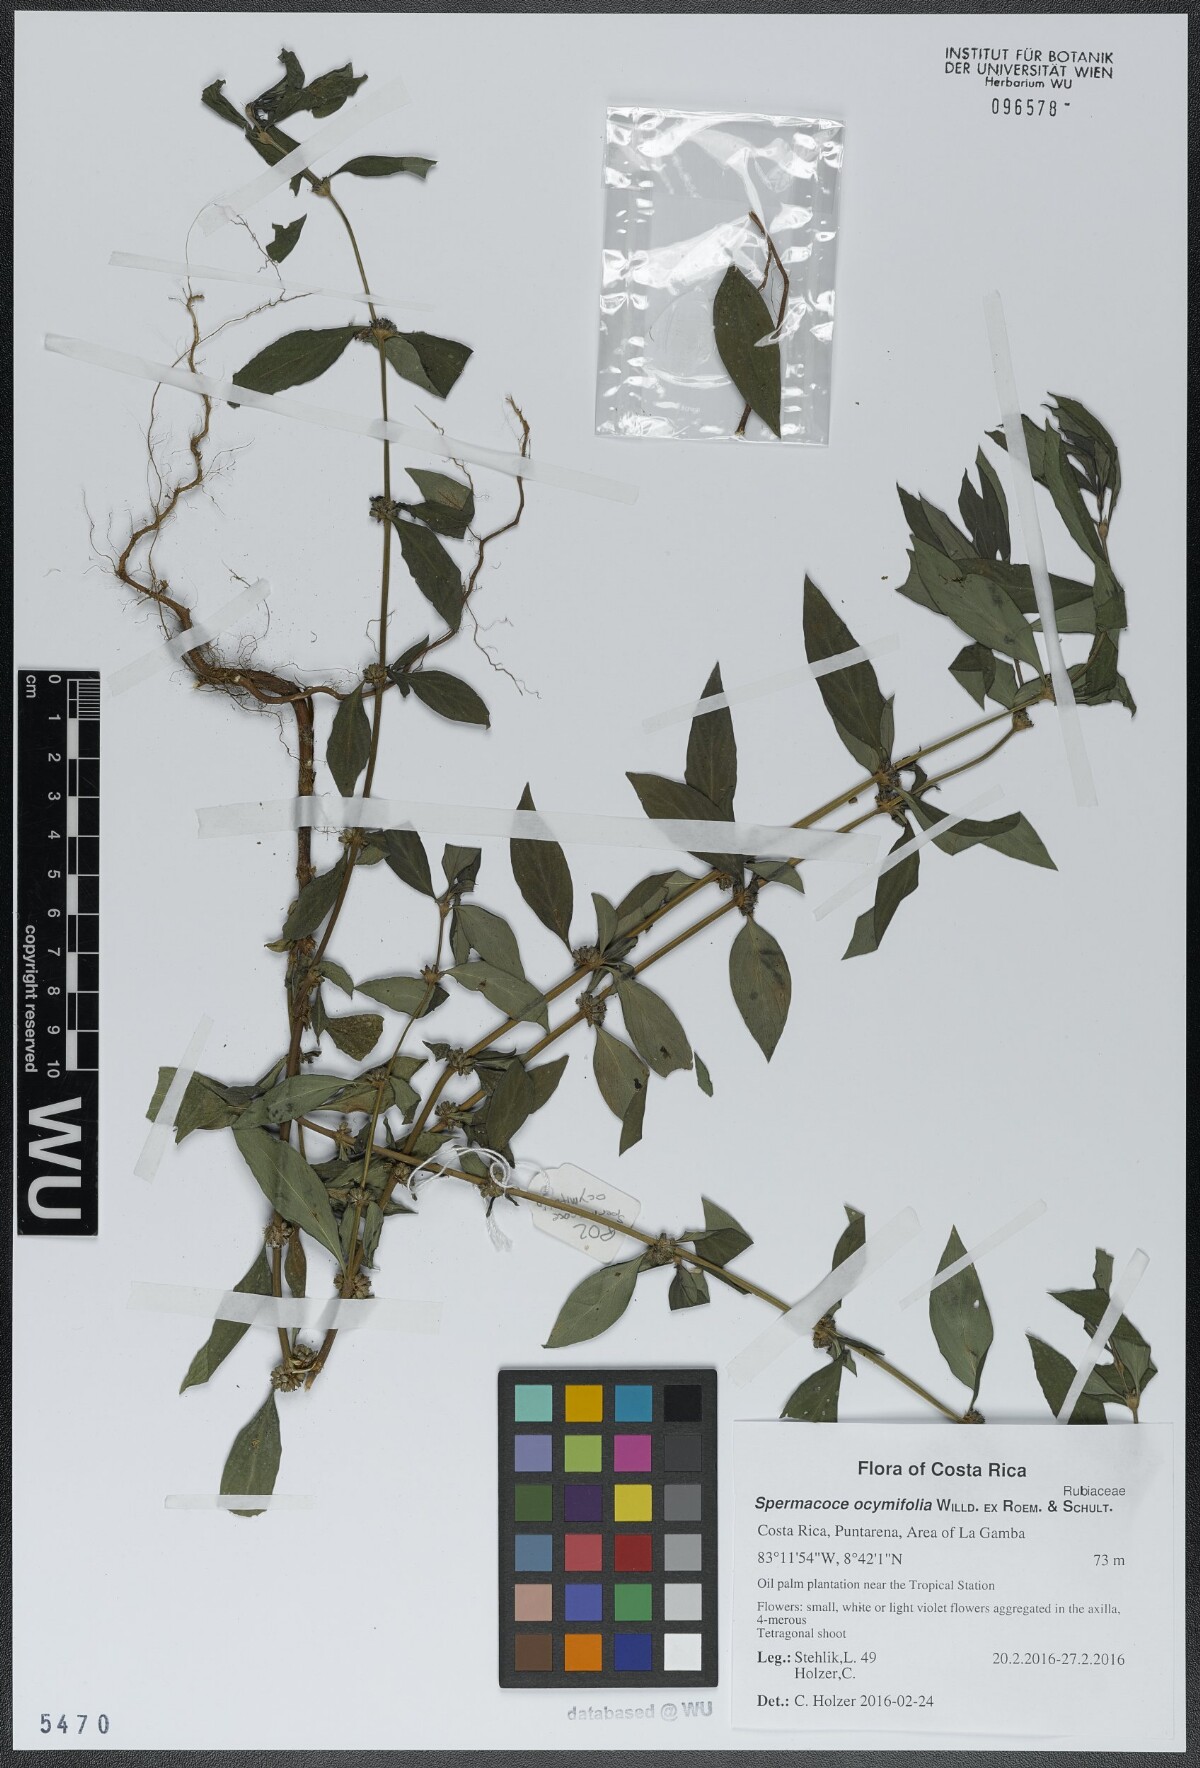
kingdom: Plantae
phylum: Tracheophyta
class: Magnoliopsida
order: Gentianales
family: Rubiaceae
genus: Spermacoce
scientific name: Spermacoce ocymifolia
